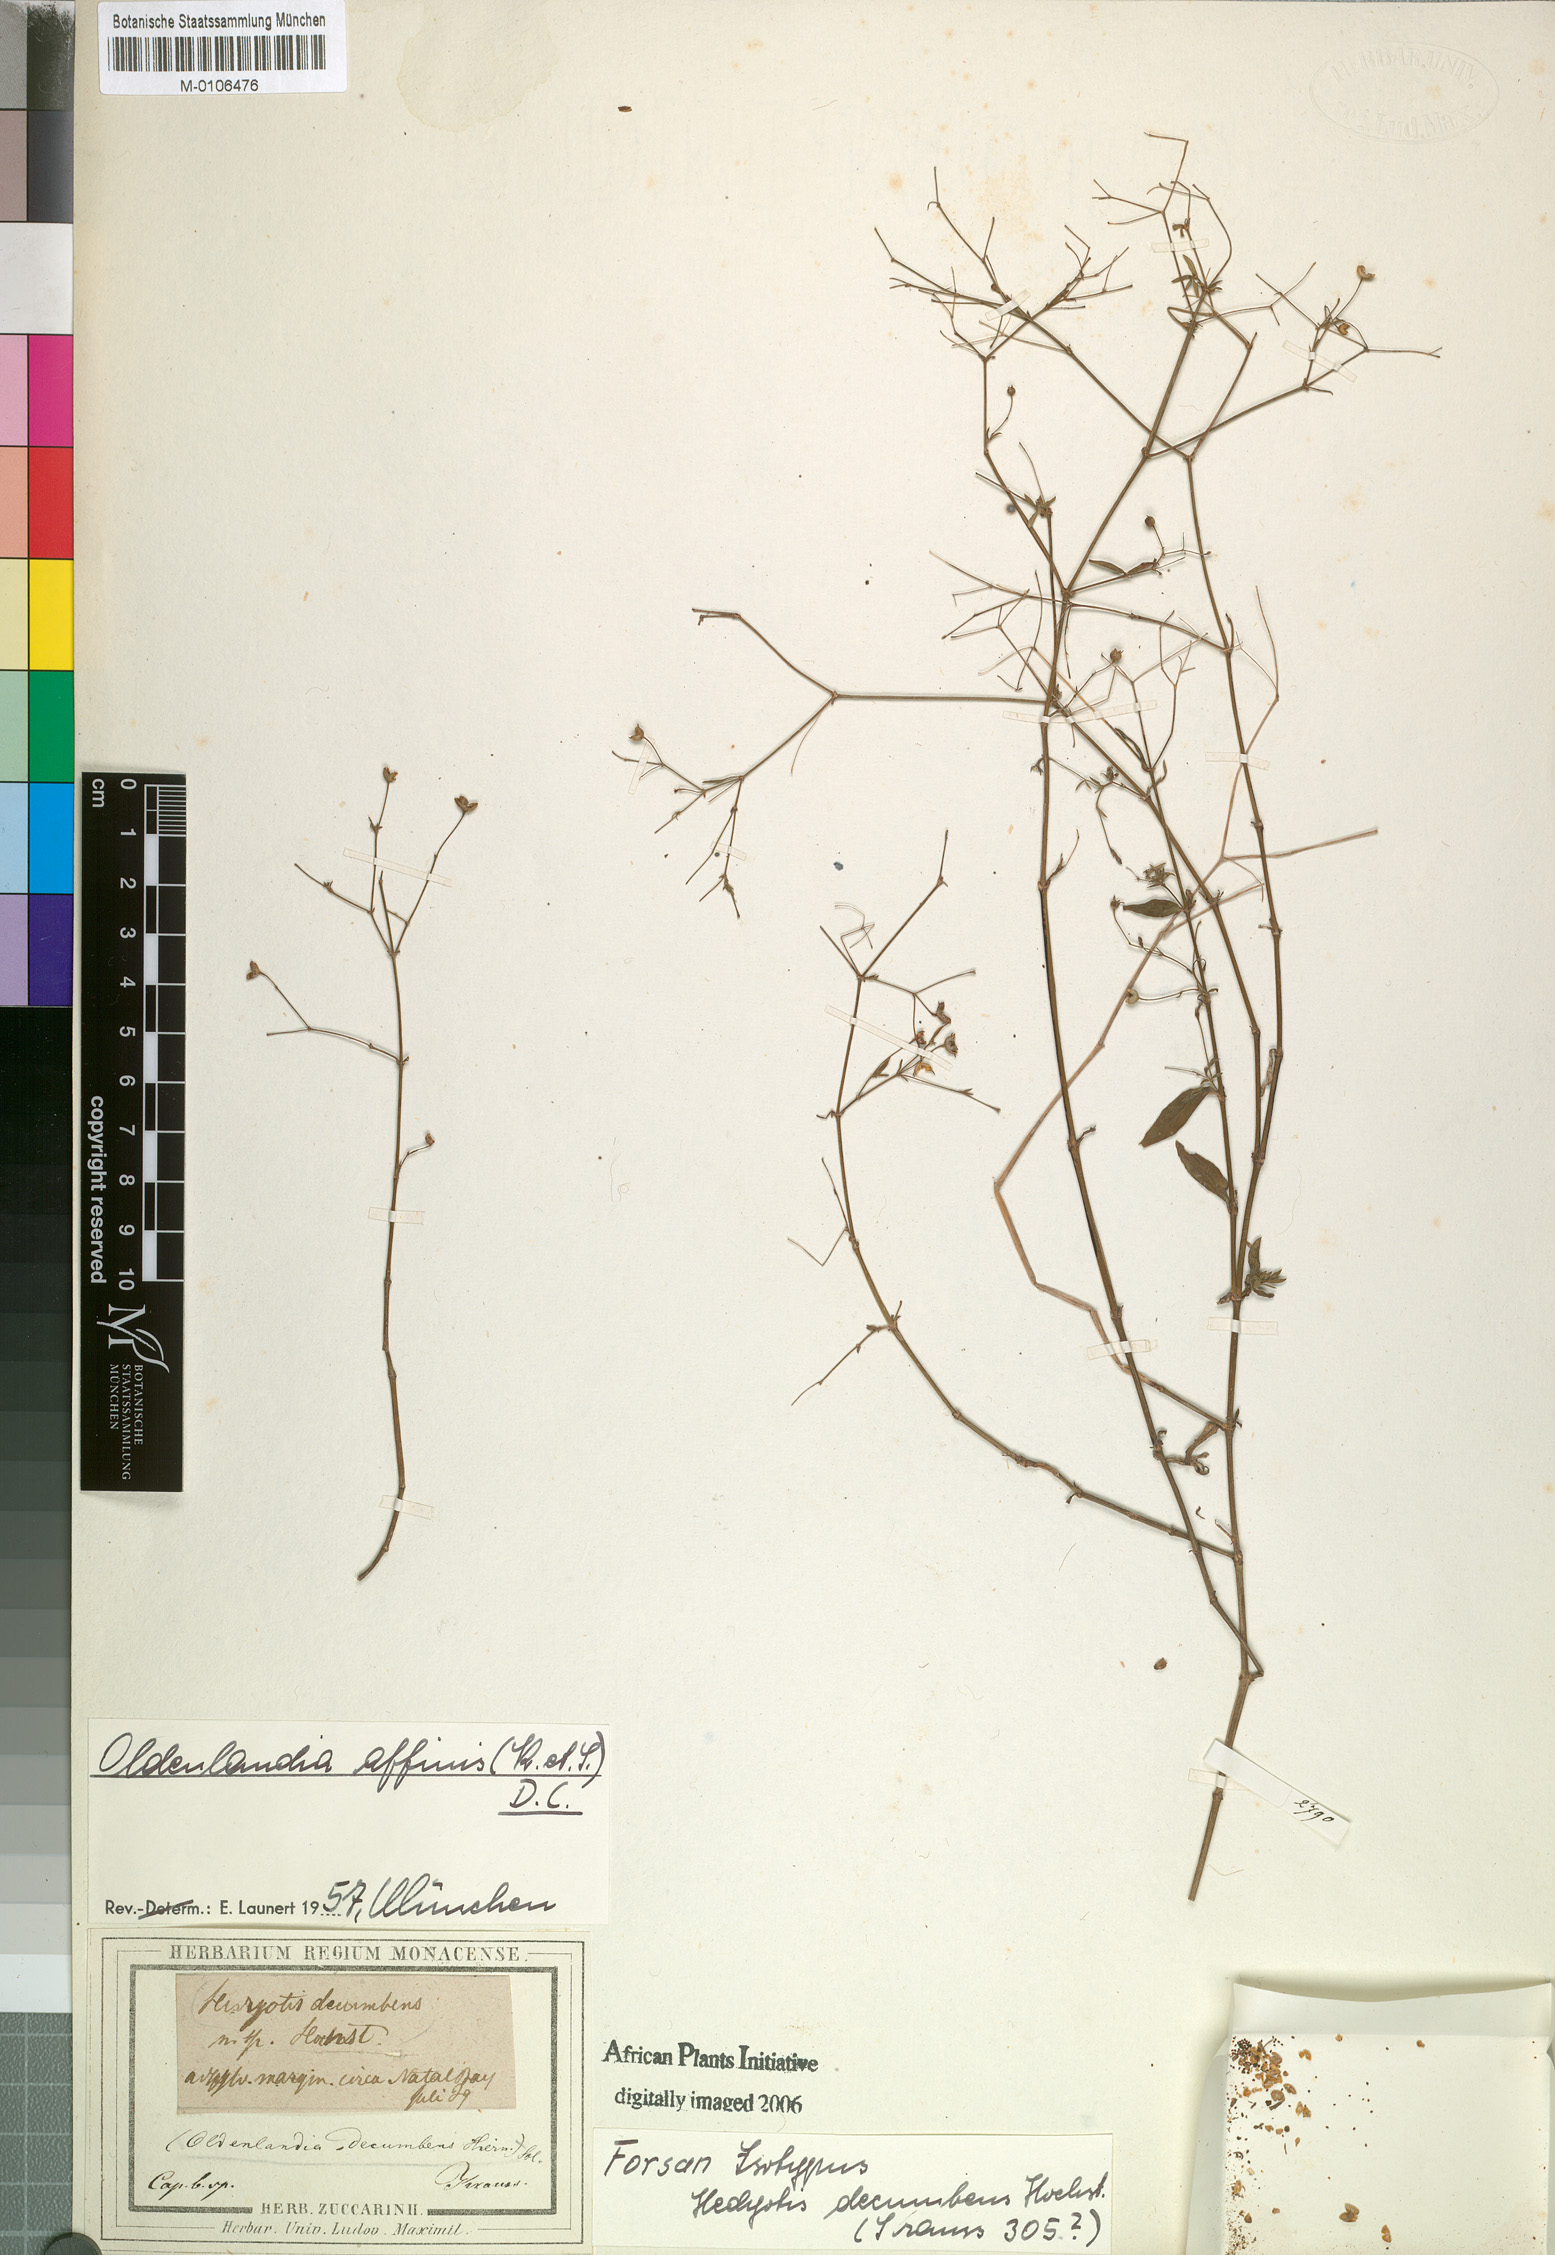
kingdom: Plantae
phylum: Tracheophyta
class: Magnoliopsida
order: Gentianales
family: Rubiaceae
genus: Oldenlandia
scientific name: Oldenlandia affinis
